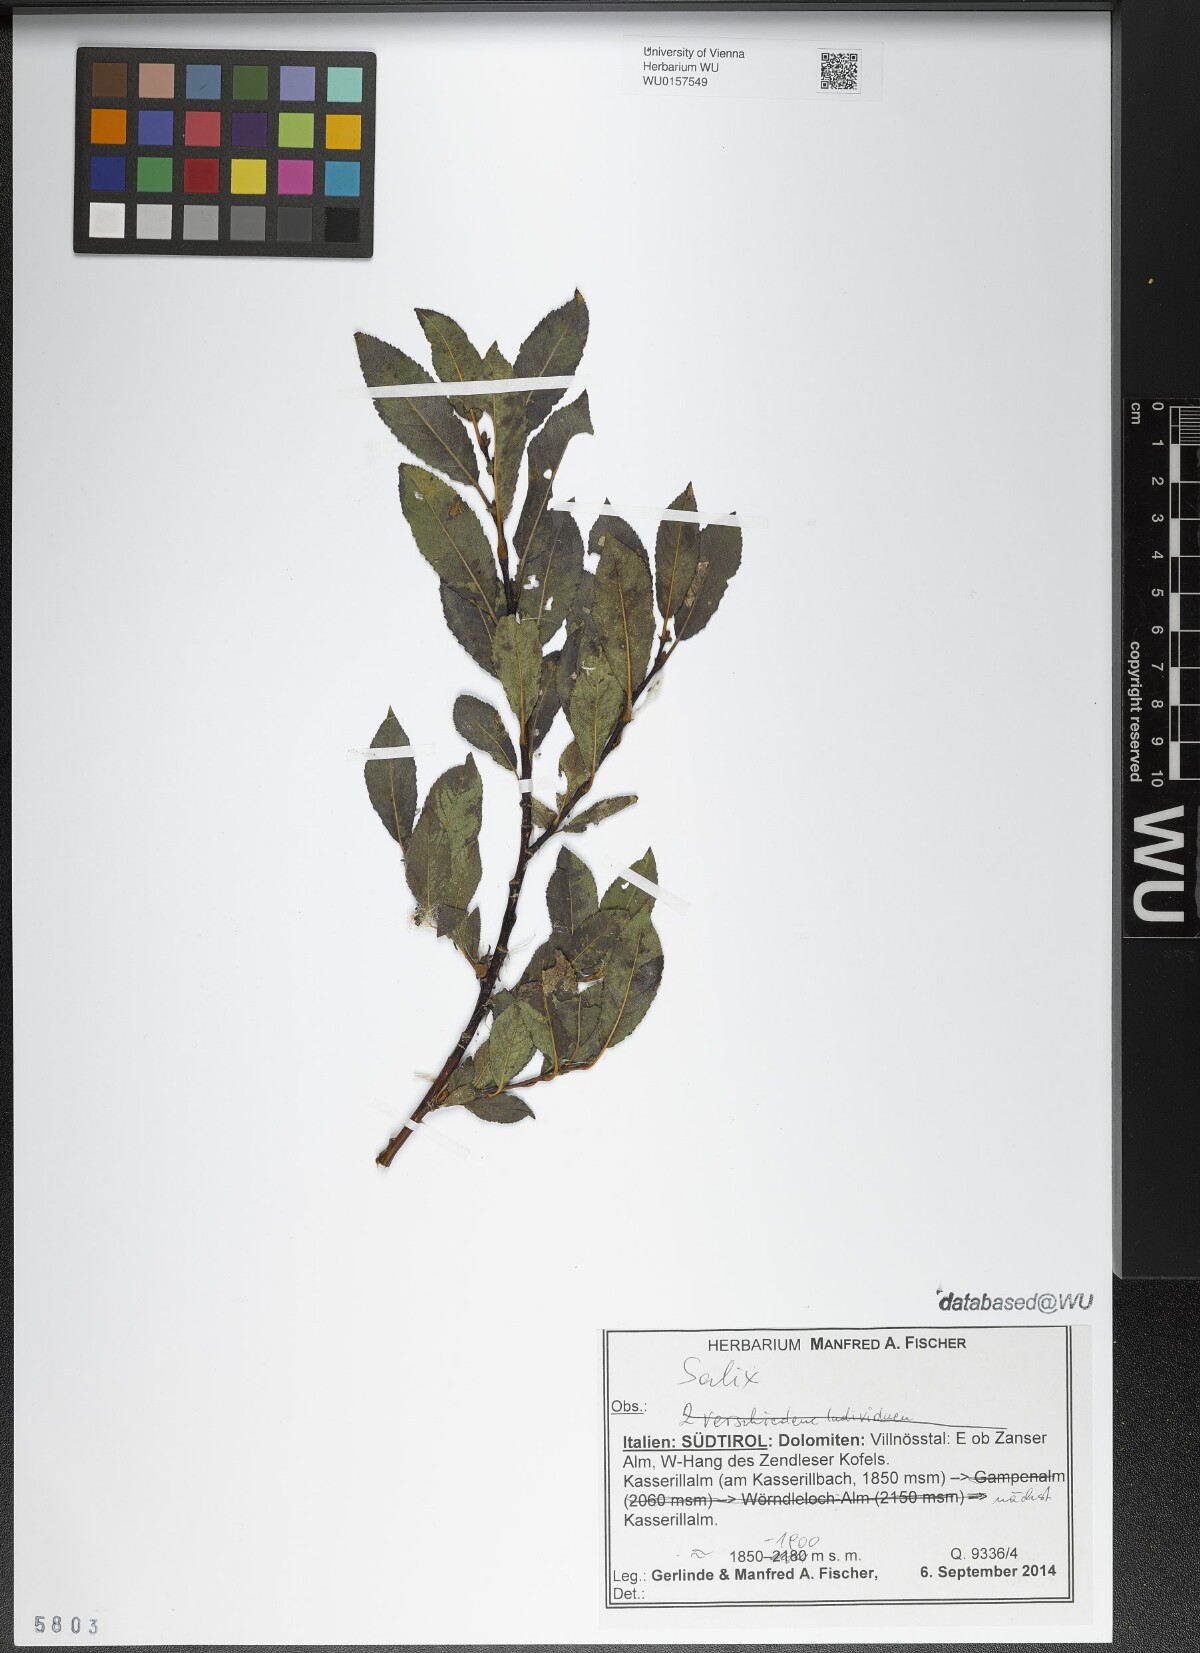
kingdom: Plantae
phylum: Tracheophyta
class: Magnoliopsida
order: Malpighiales
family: Salicaceae
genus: Salix
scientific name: Salix
